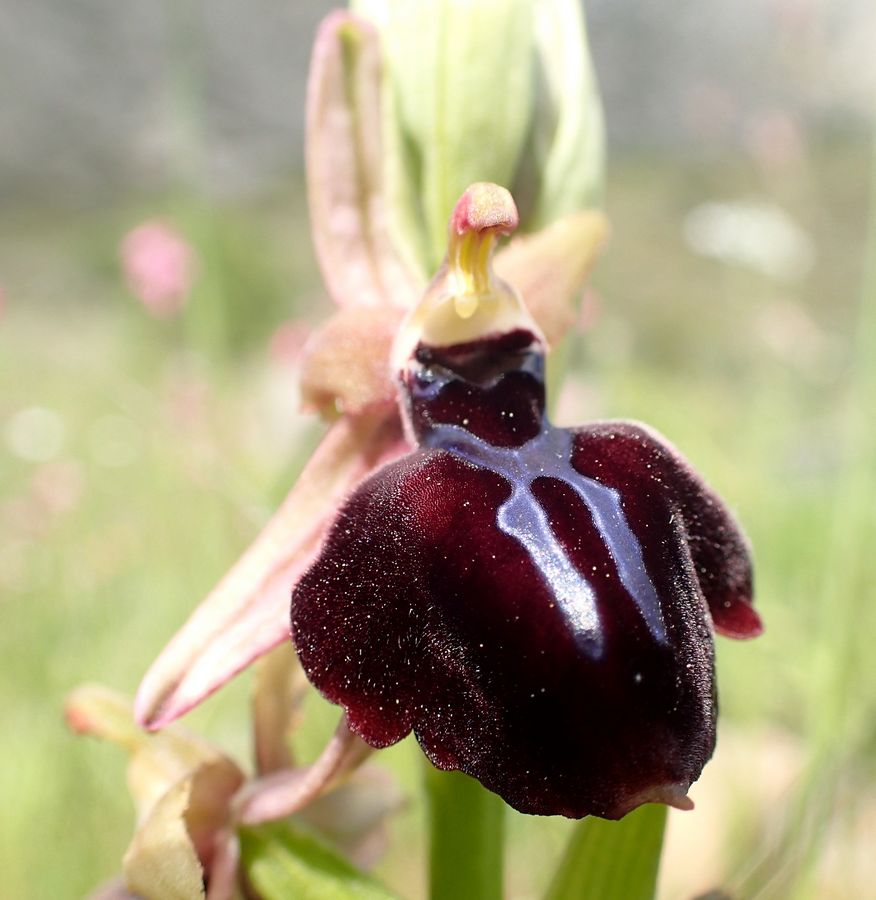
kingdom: Plantae
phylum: Tracheophyta
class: Liliopsida
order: Asparagales
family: Orchidaceae
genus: Ophrys
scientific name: Ophrys sphegodes
